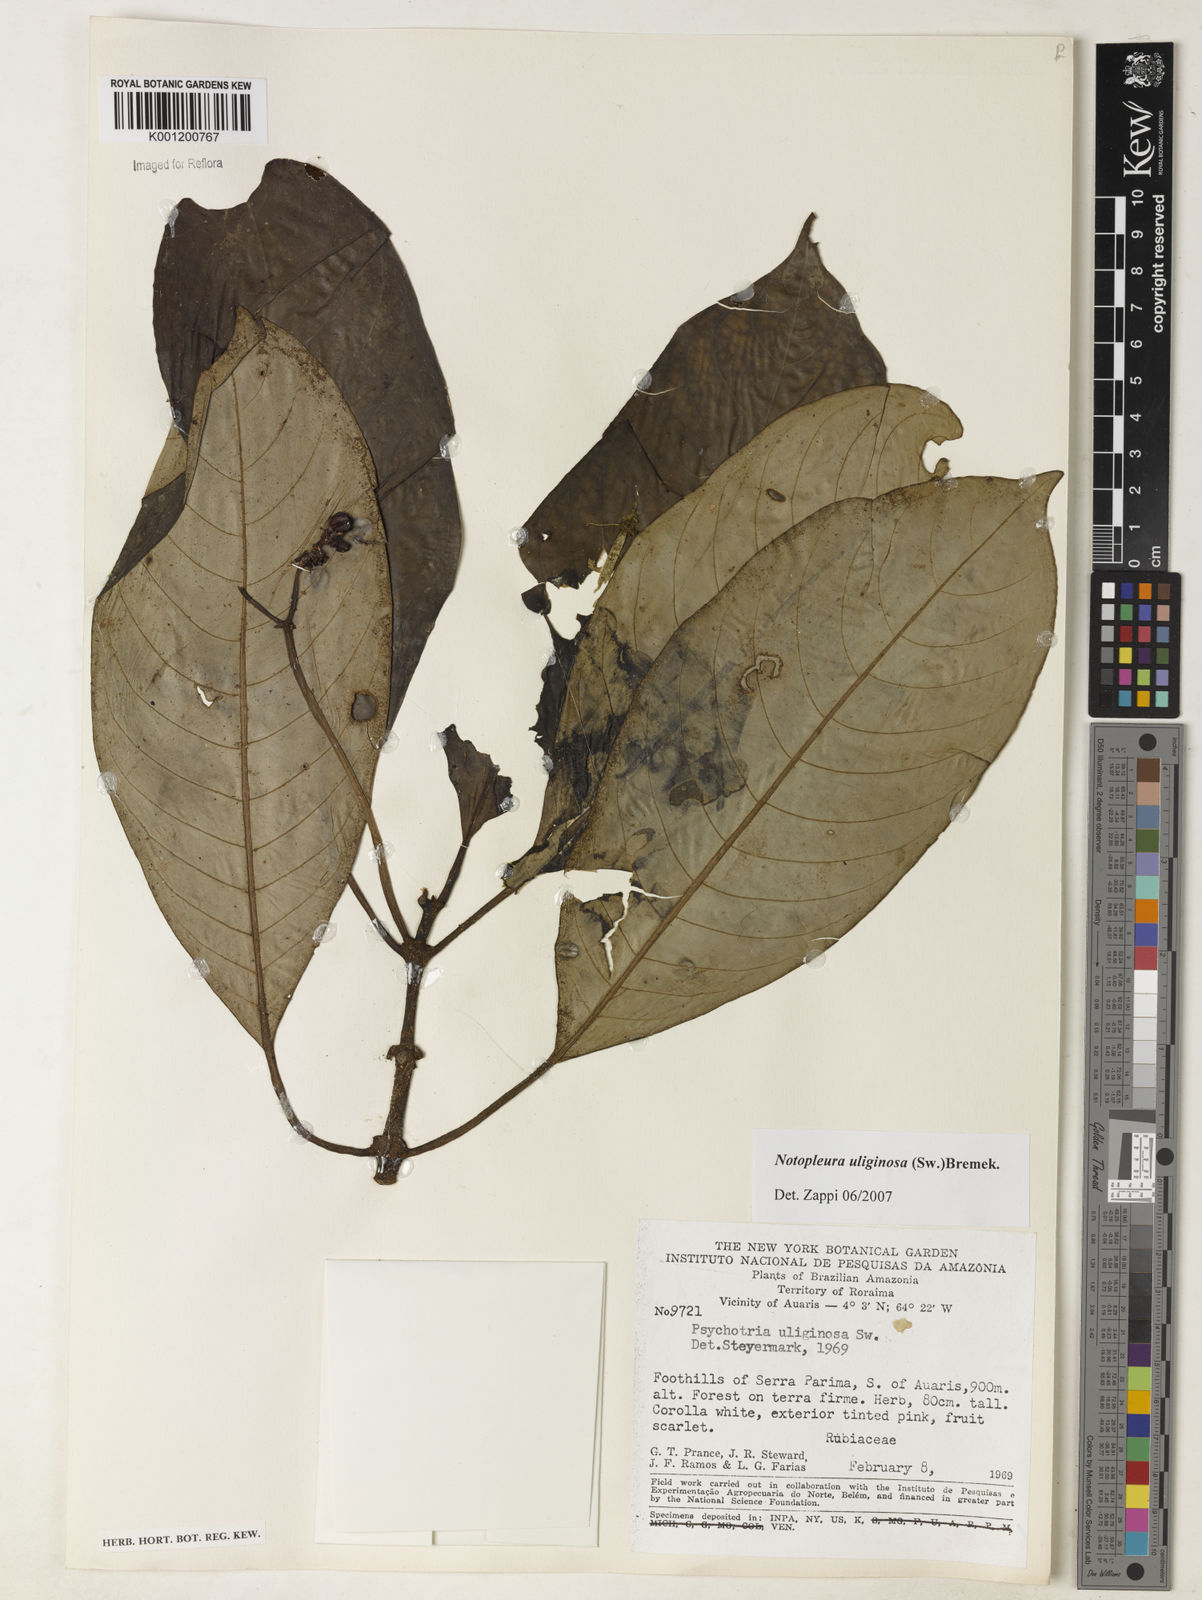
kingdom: Plantae
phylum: Tracheophyta
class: Magnoliopsida
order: Gentianales
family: Rubiaceae
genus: Notopleura
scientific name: Notopleura uliginosa
